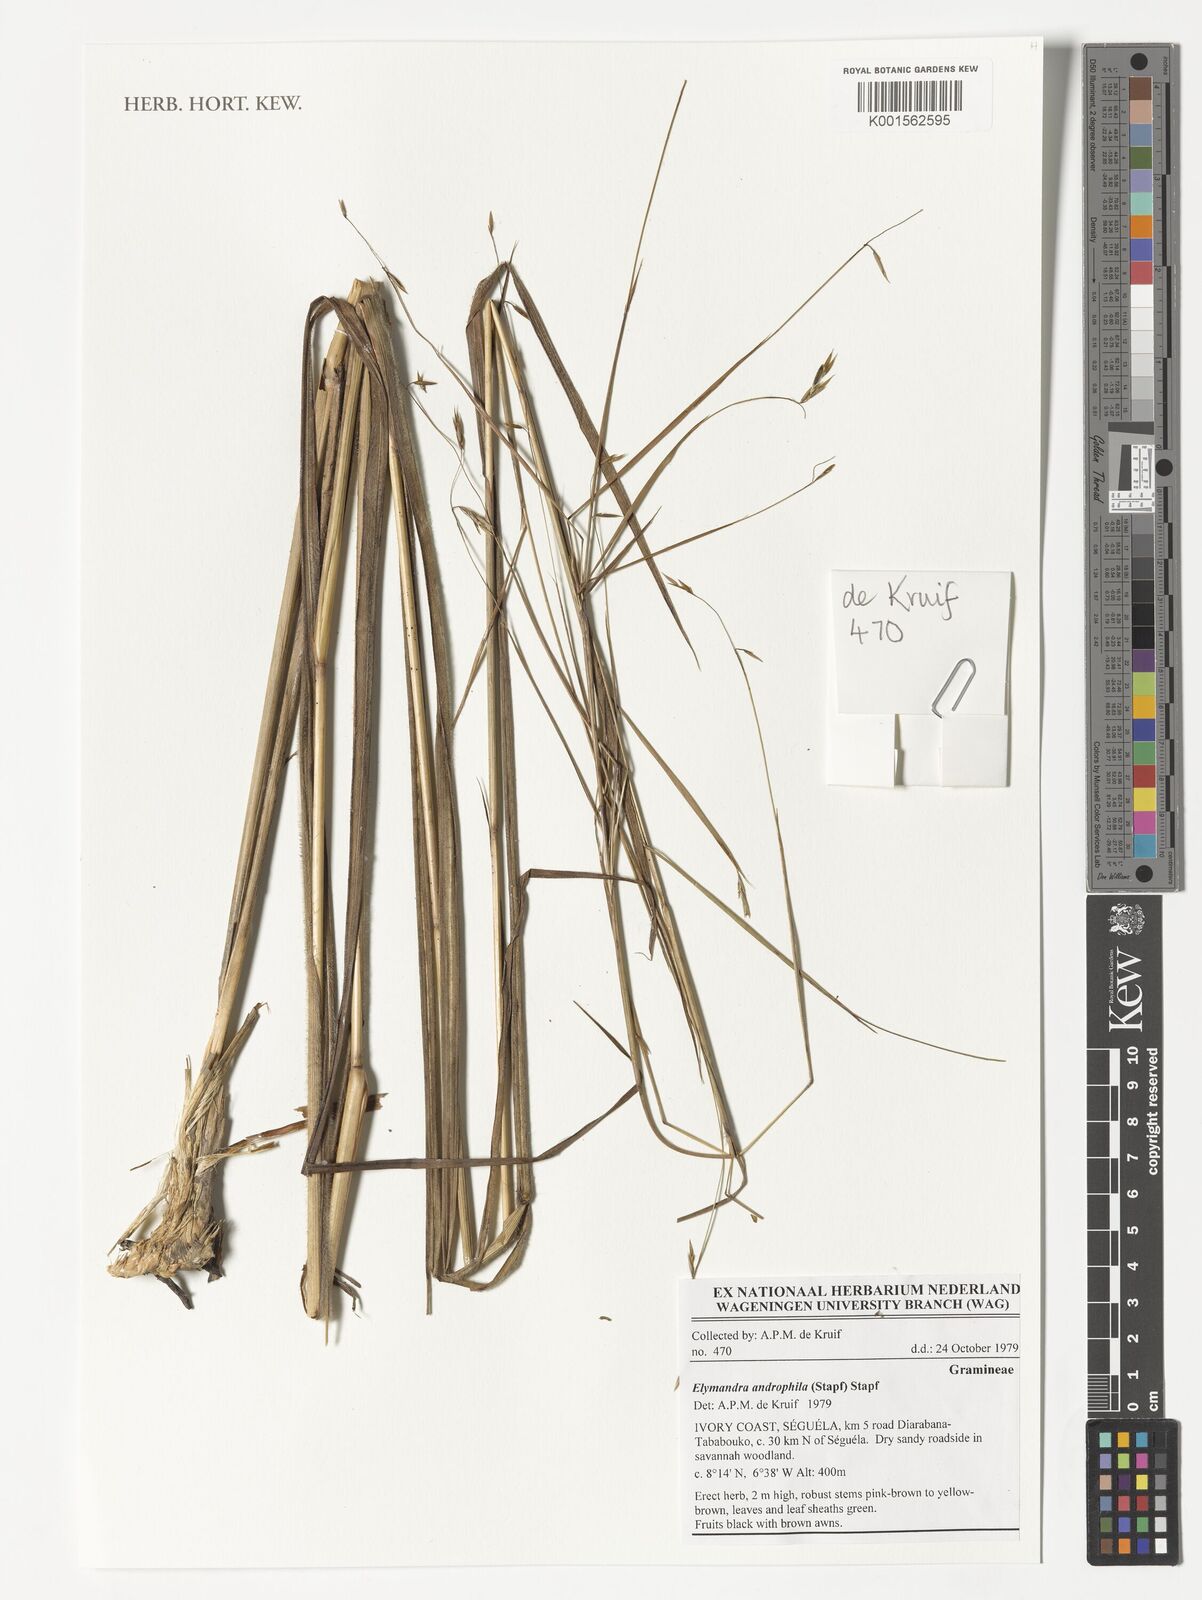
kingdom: Plantae
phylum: Tracheophyta
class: Liliopsida
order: Poales
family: Poaceae
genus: Elymandra
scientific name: Elymandra androphila
